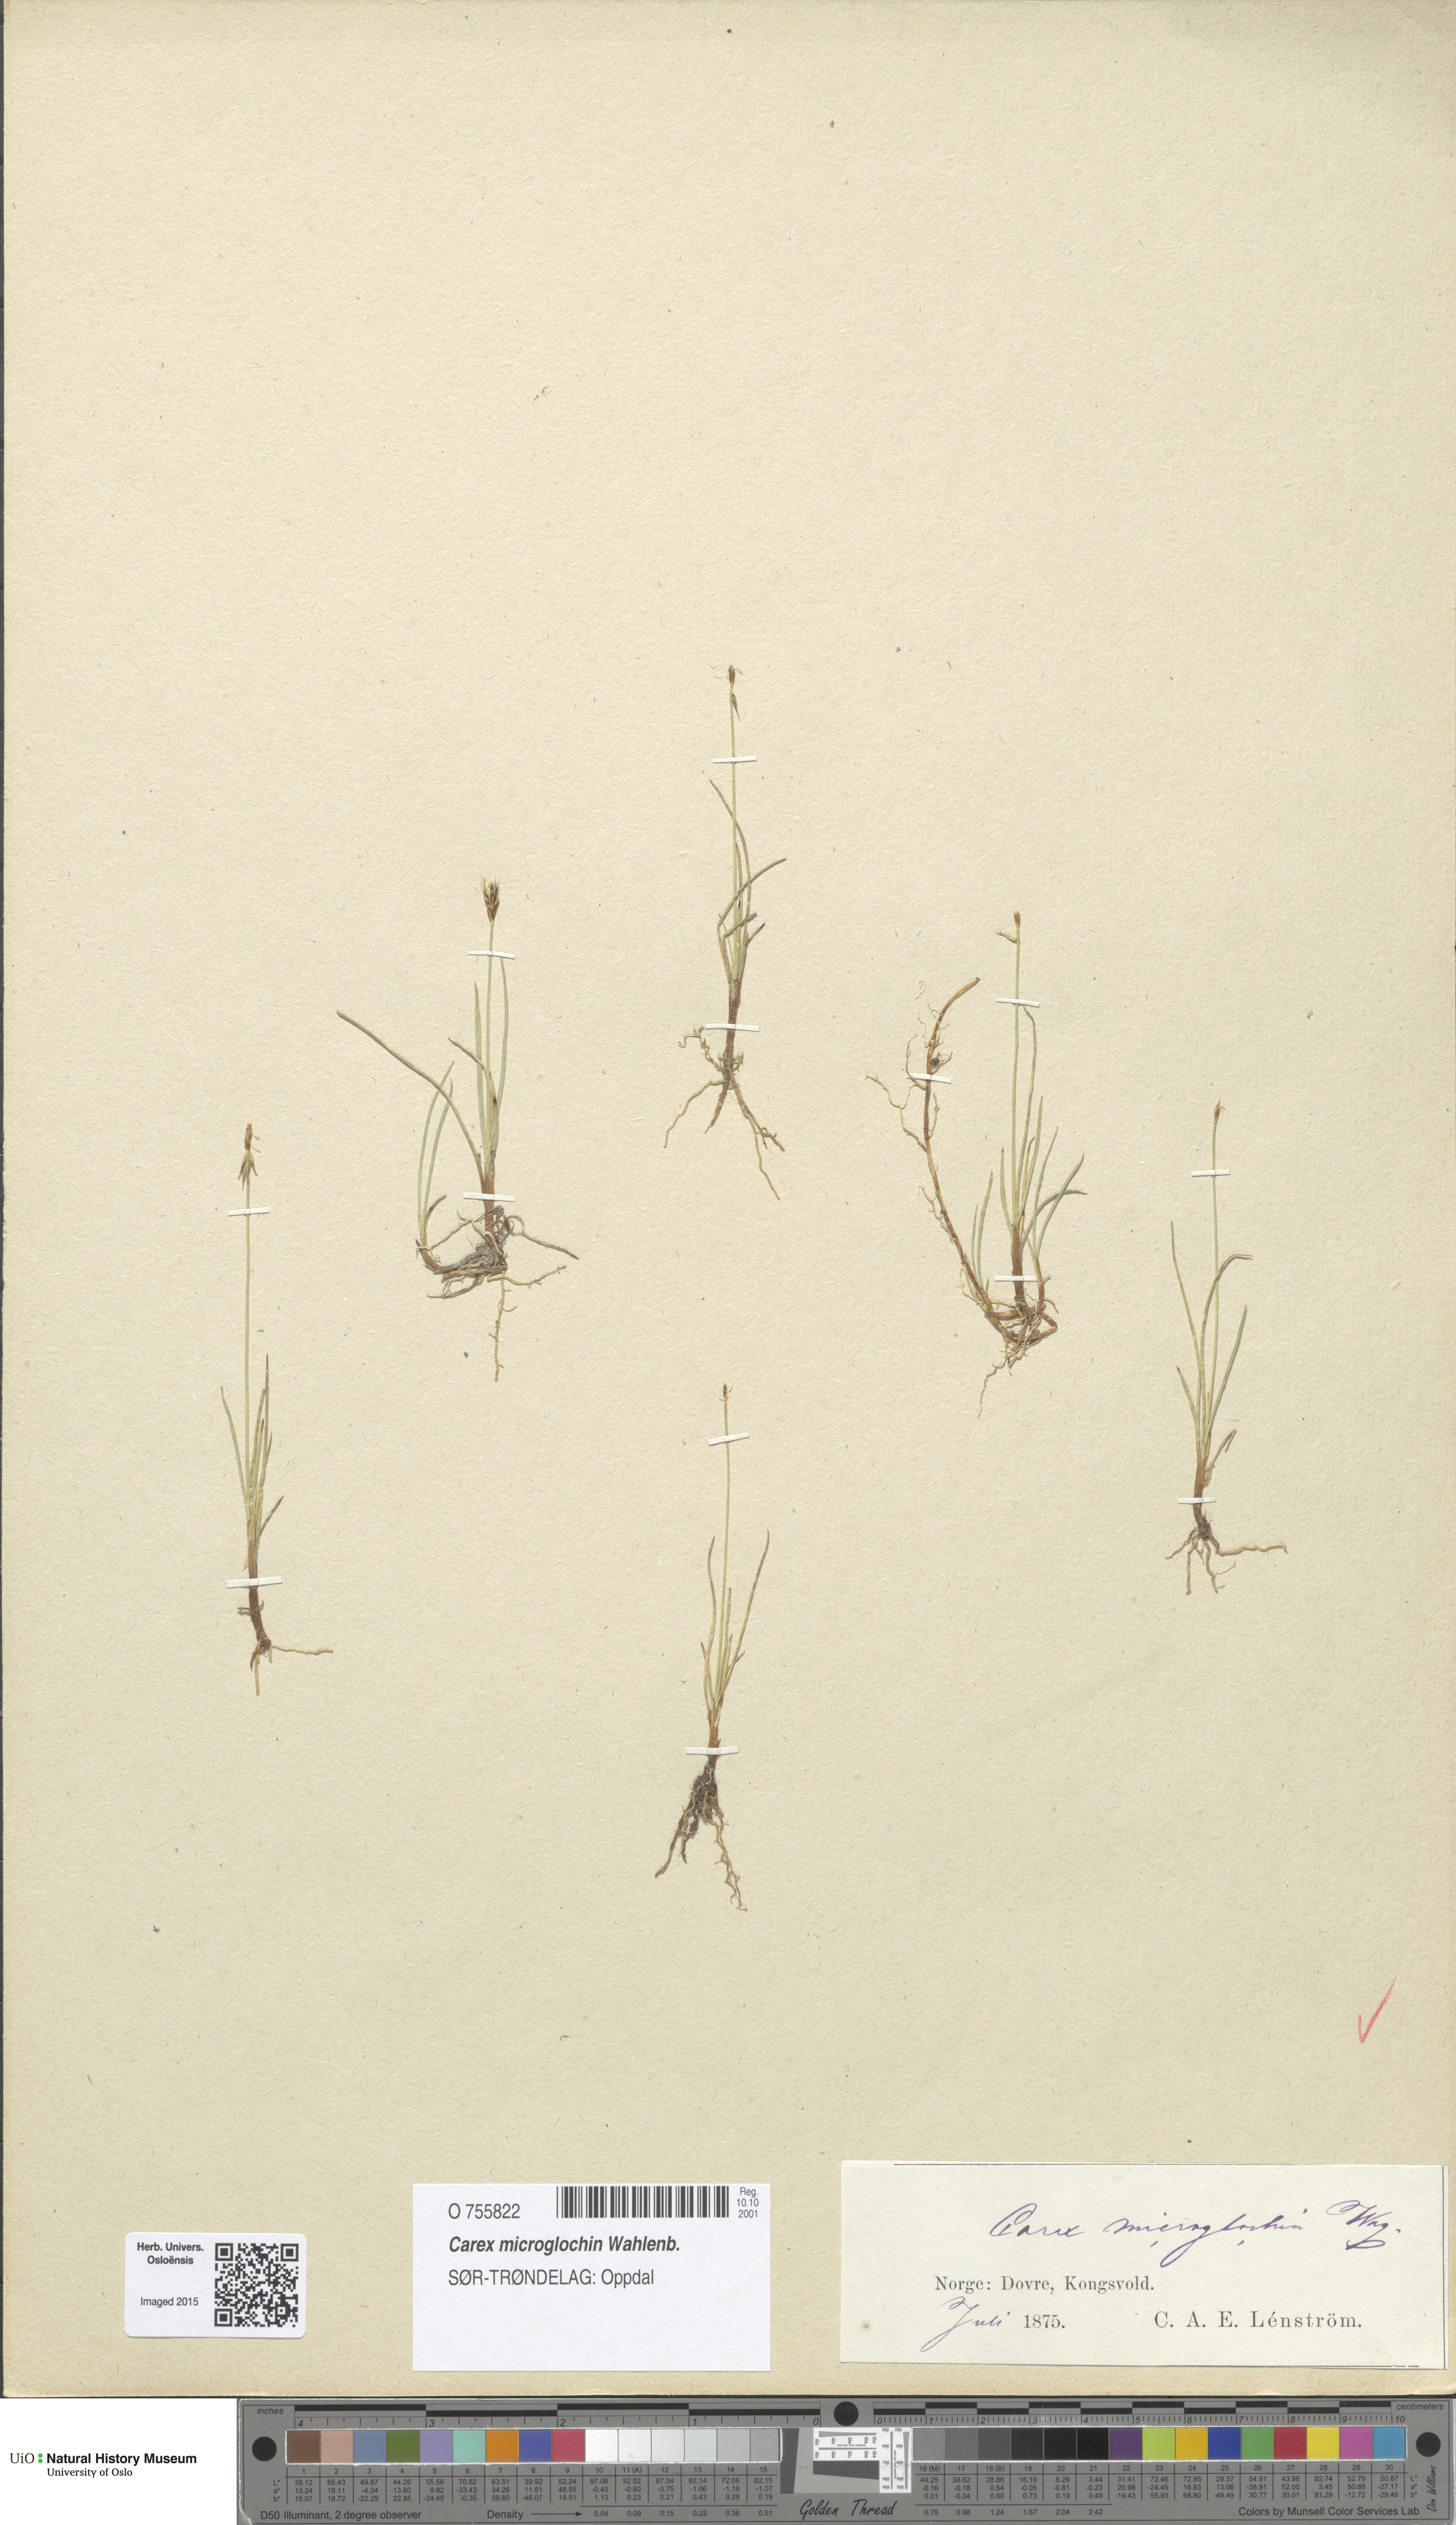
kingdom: Plantae
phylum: Tracheophyta
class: Liliopsida
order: Poales
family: Cyperaceae
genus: Carex
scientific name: Carex microglochin
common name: Bristle sedge
